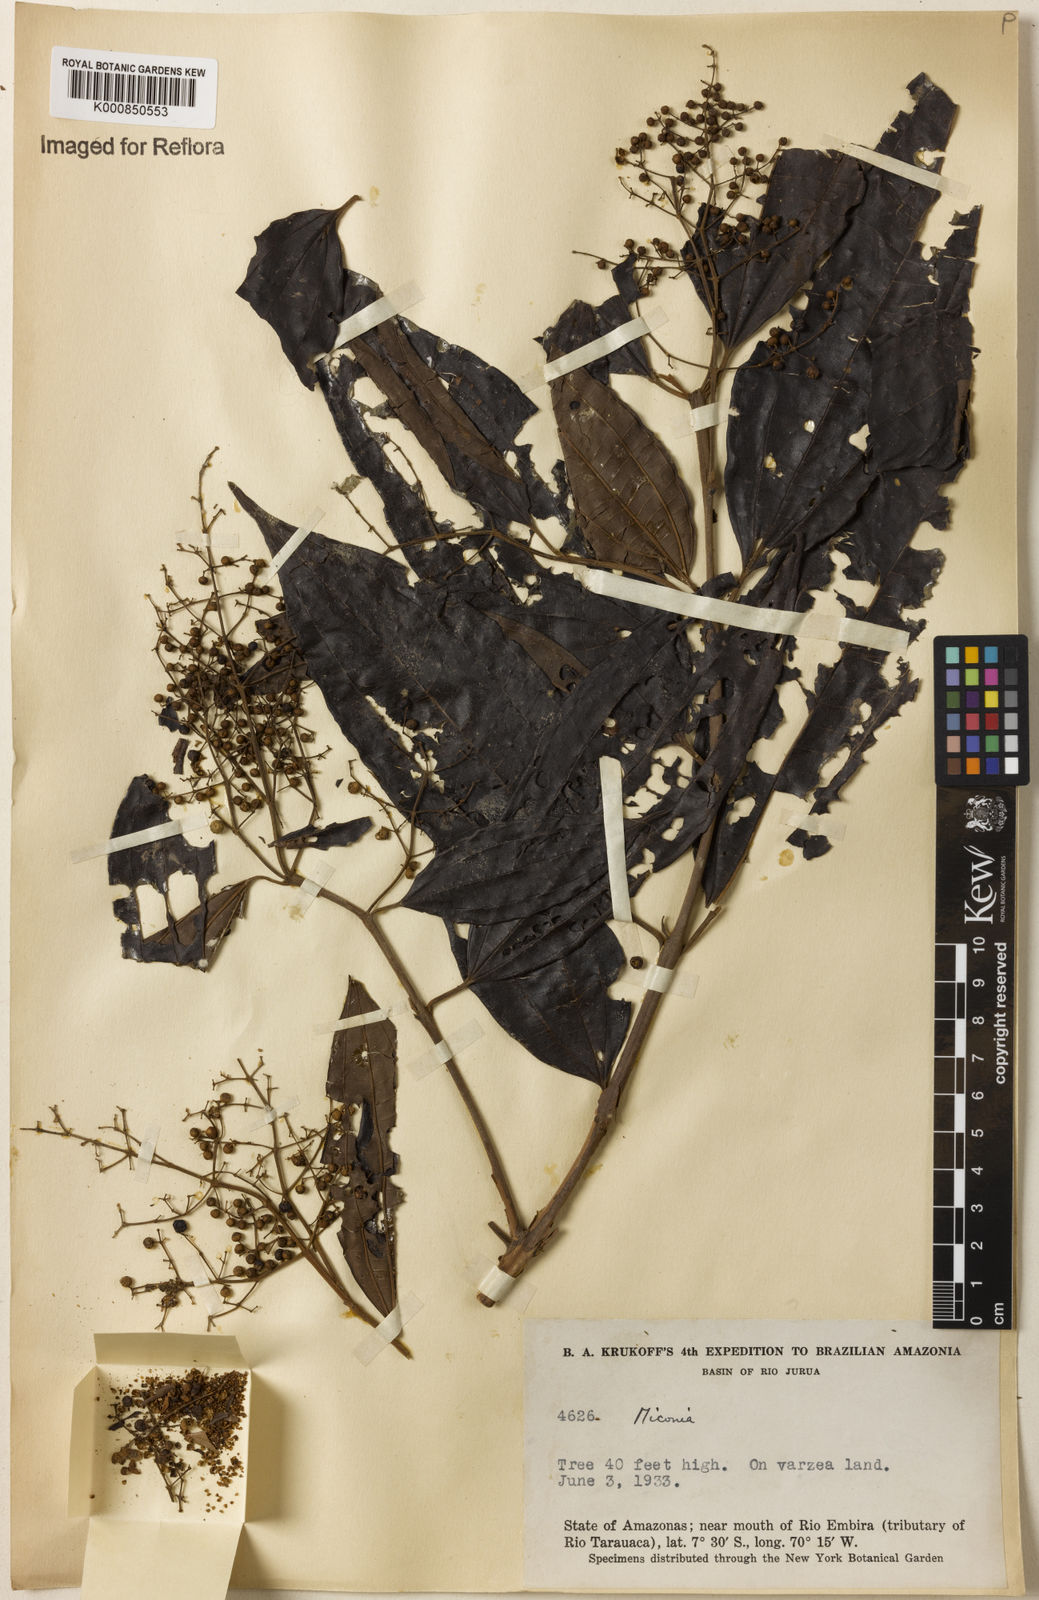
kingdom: Plantae
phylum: Tracheophyta
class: Magnoliopsida
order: Myrtales
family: Melastomataceae
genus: Miconia
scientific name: Miconia
